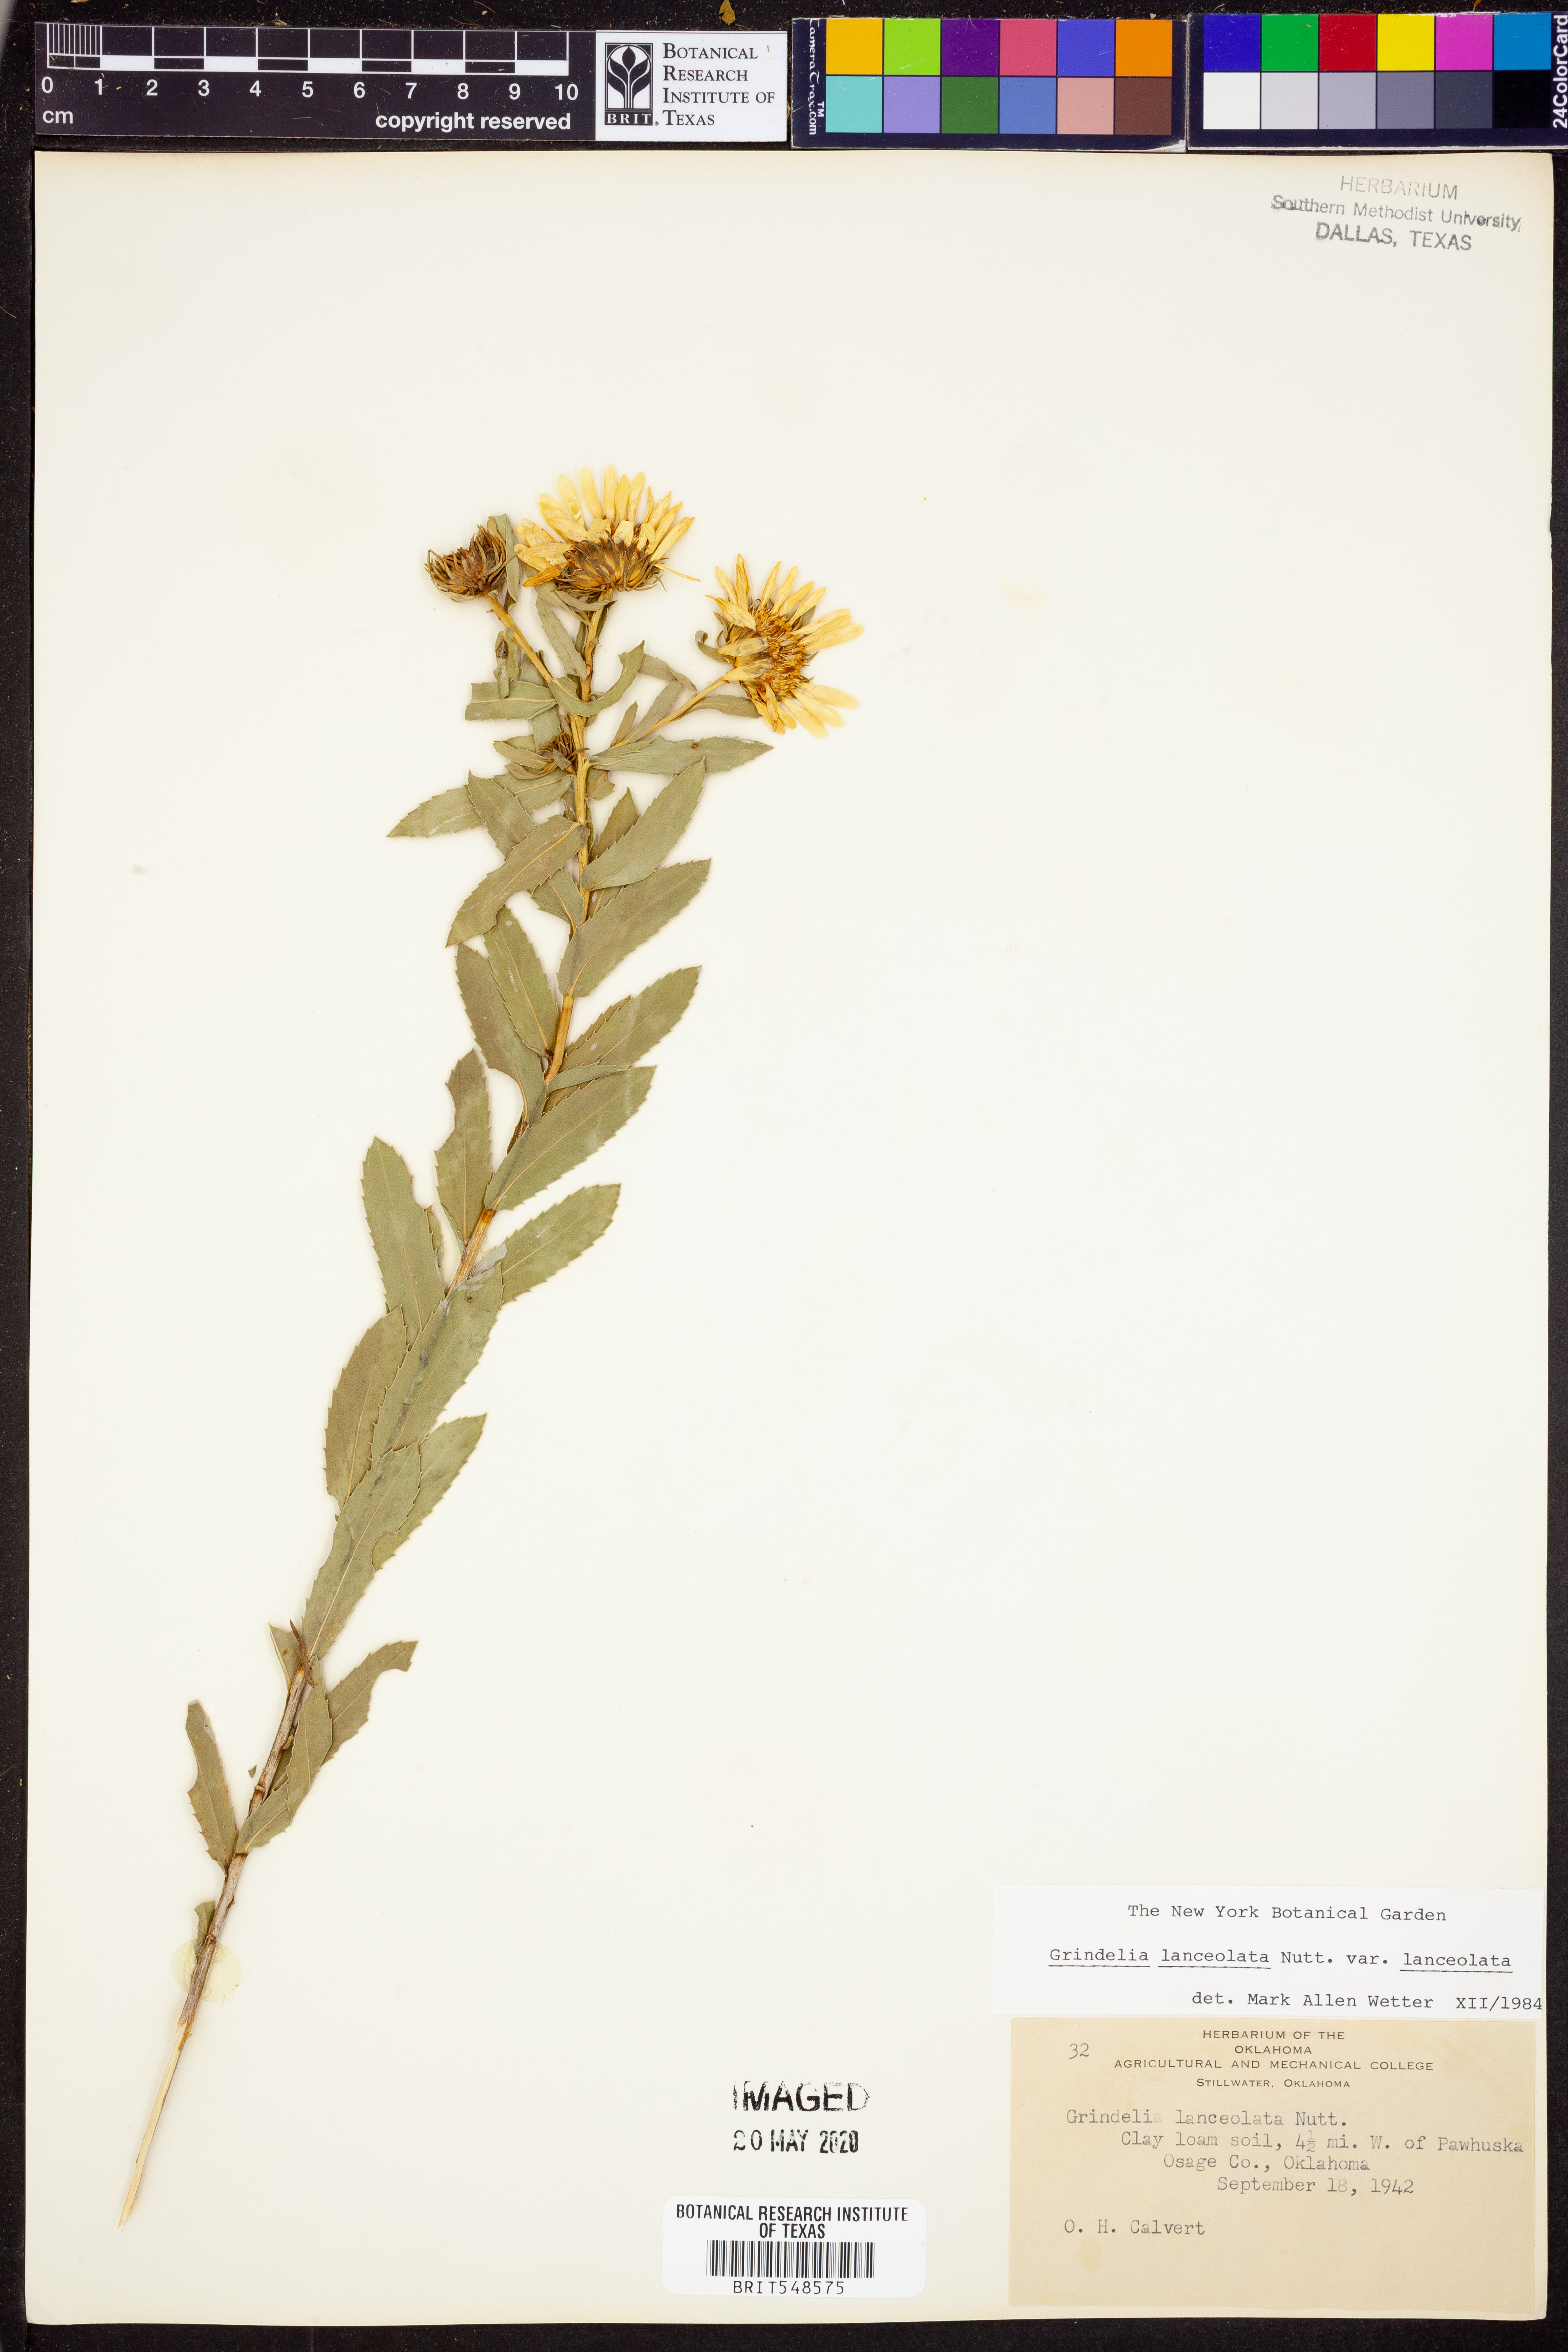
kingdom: Plantae
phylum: Tracheophyta
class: Magnoliopsida
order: Asterales
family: Asteraceae
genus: Grindelia
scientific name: Grindelia lanceolata
